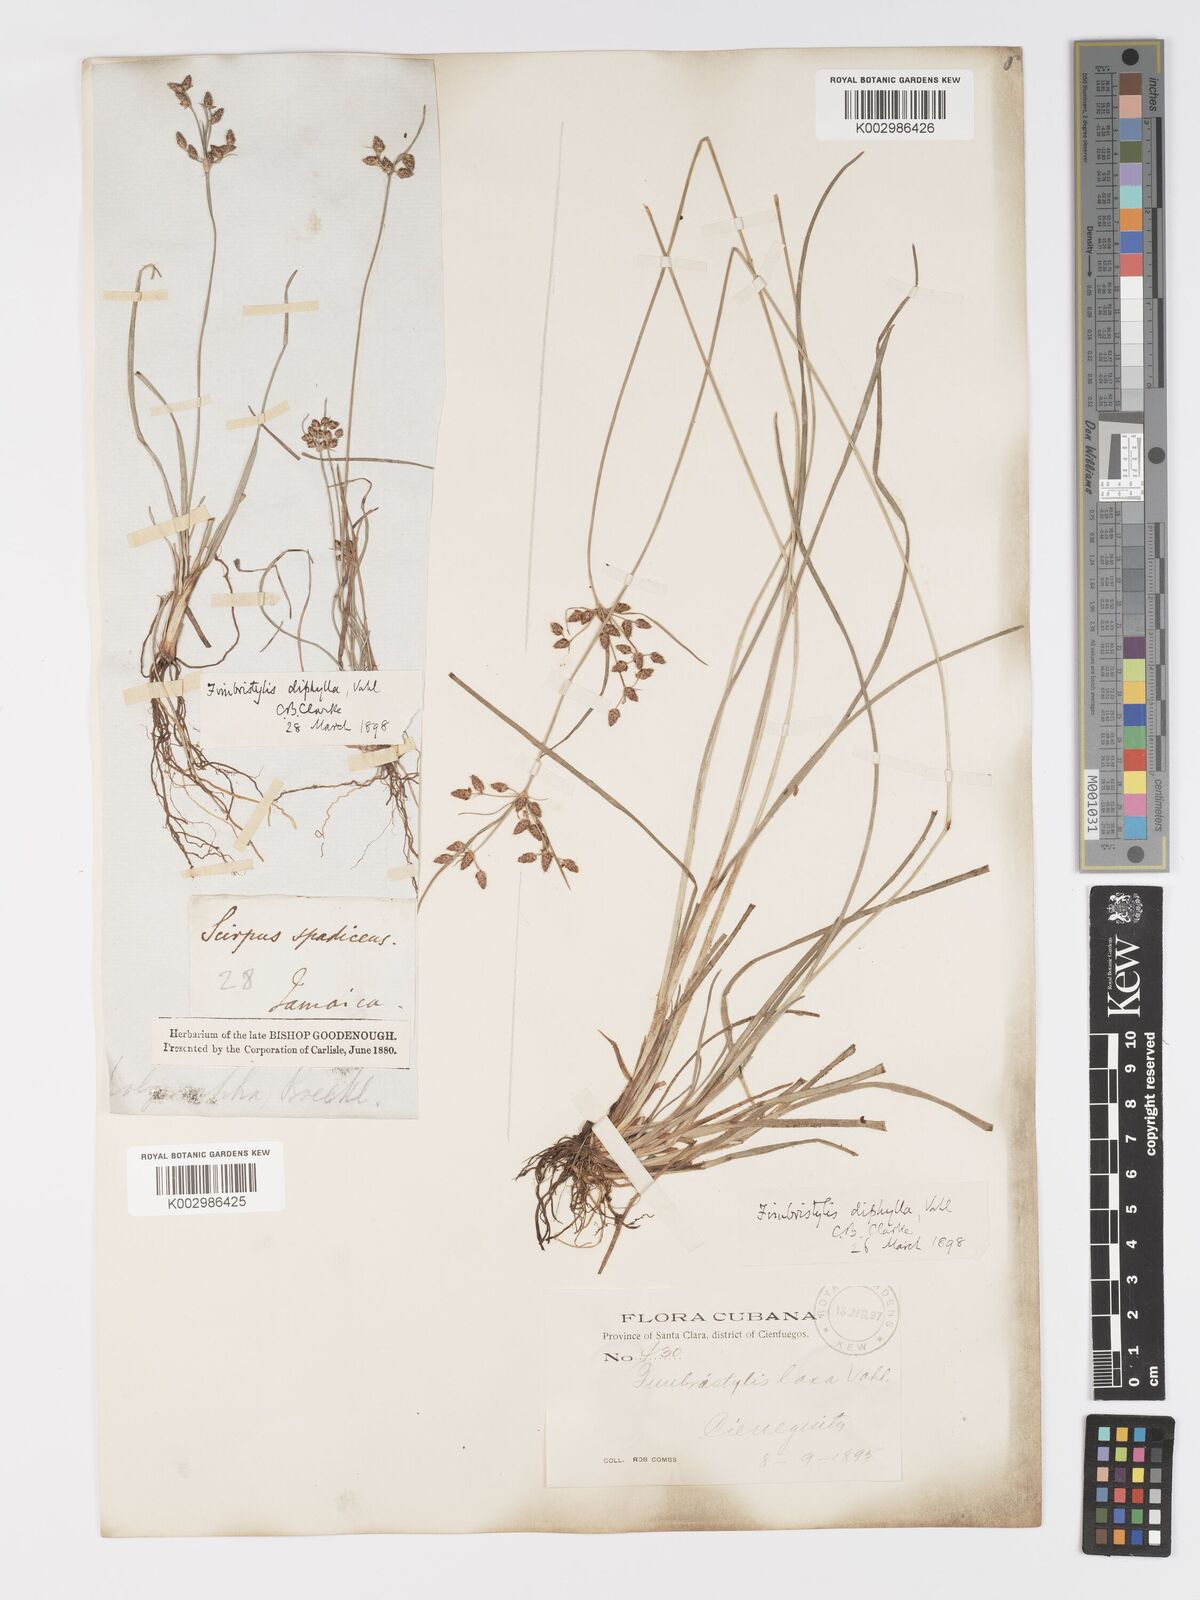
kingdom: Plantae
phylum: Tracheophyta
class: Liliopsida
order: Poales
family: Cyperaceae
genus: Fimbristylis
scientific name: Fimbristylis dichotoma
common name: Forked fimbry
